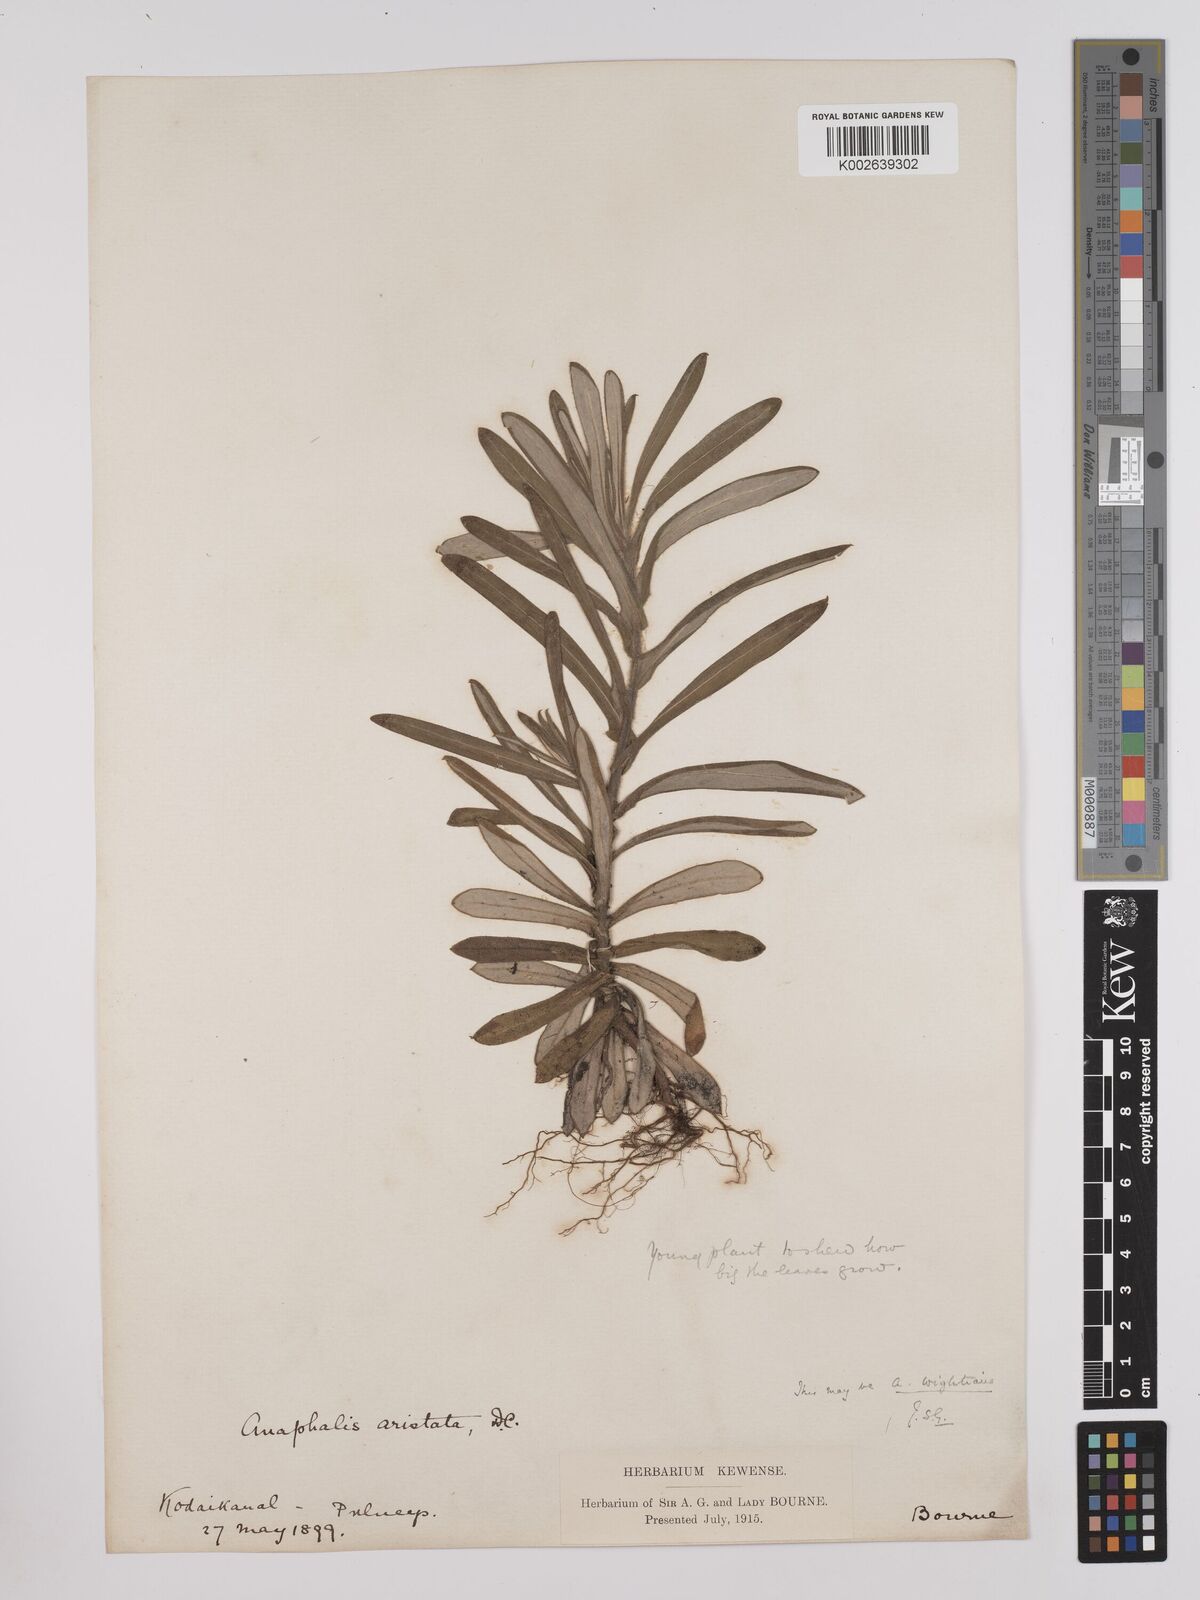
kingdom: Plantae
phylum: Tracheophyta
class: Magnoliopsida
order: Asterales
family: Asteraceae
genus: Anaphalis
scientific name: Anaphalis aristata
